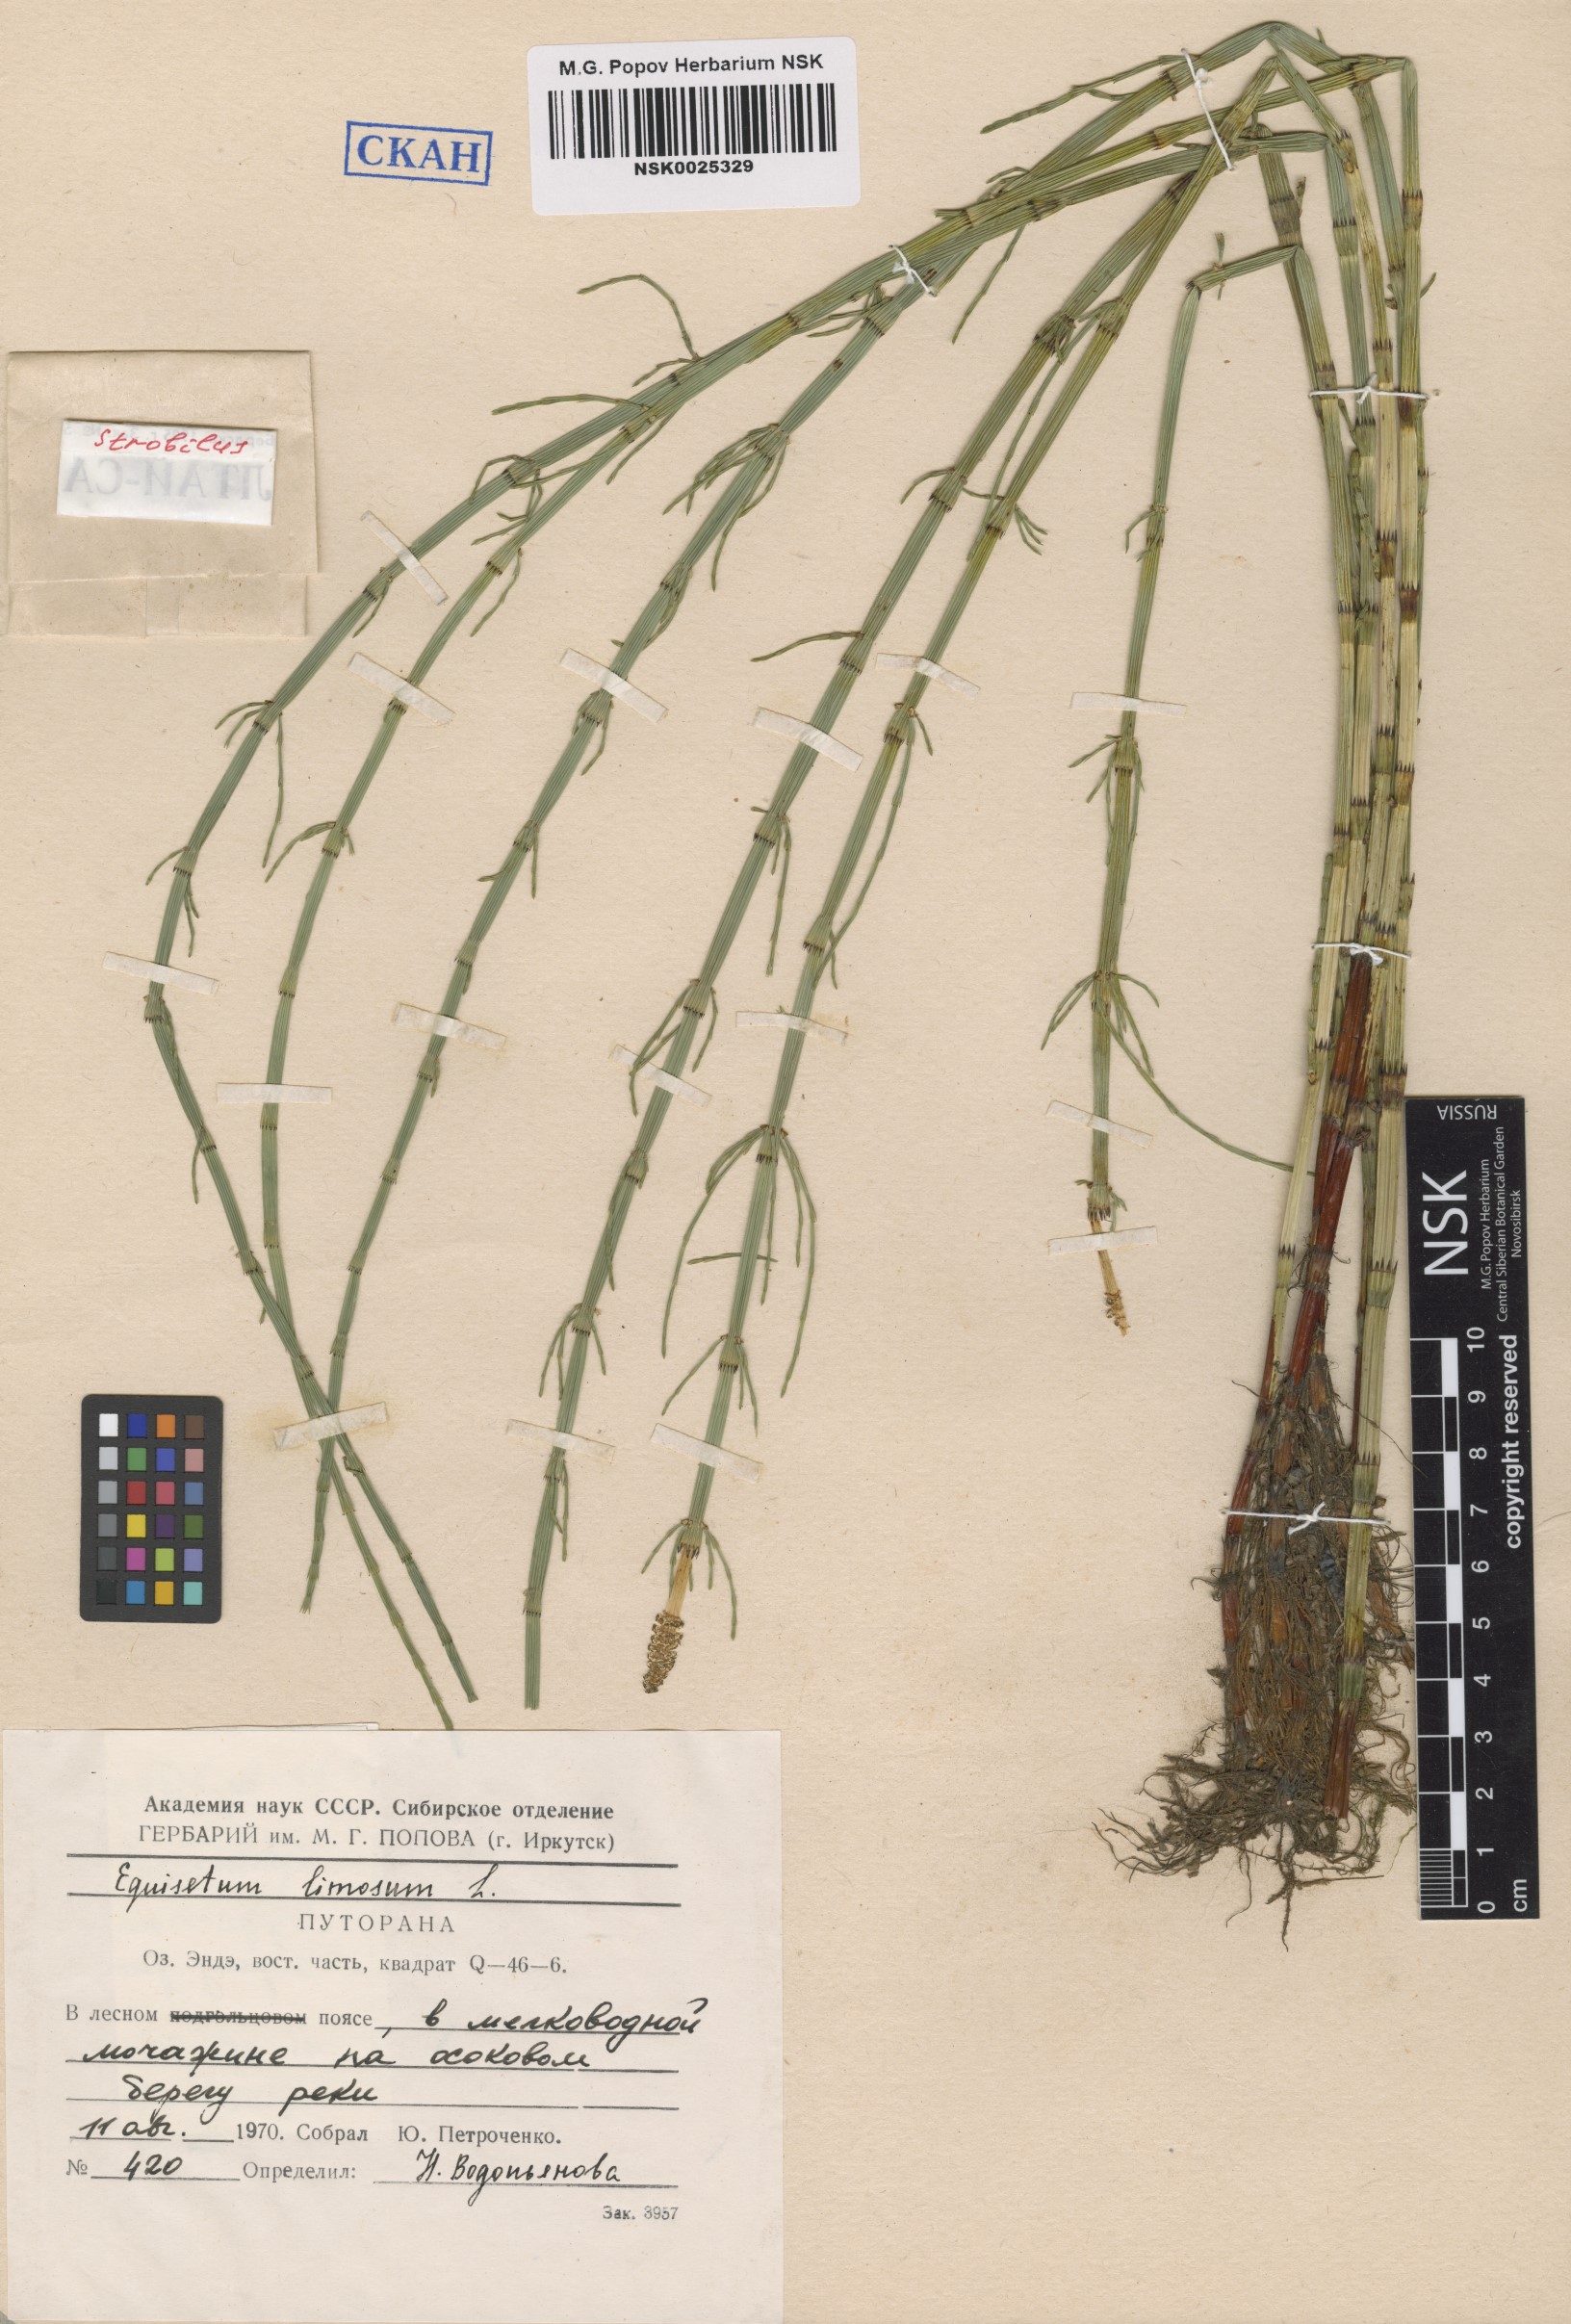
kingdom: Plantae
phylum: Tracheophyta
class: Polypodiopsida
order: Equisetales
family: Equisetaceae
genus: Equisetum
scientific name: Equisetum fluviatile
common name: Water horsetail
